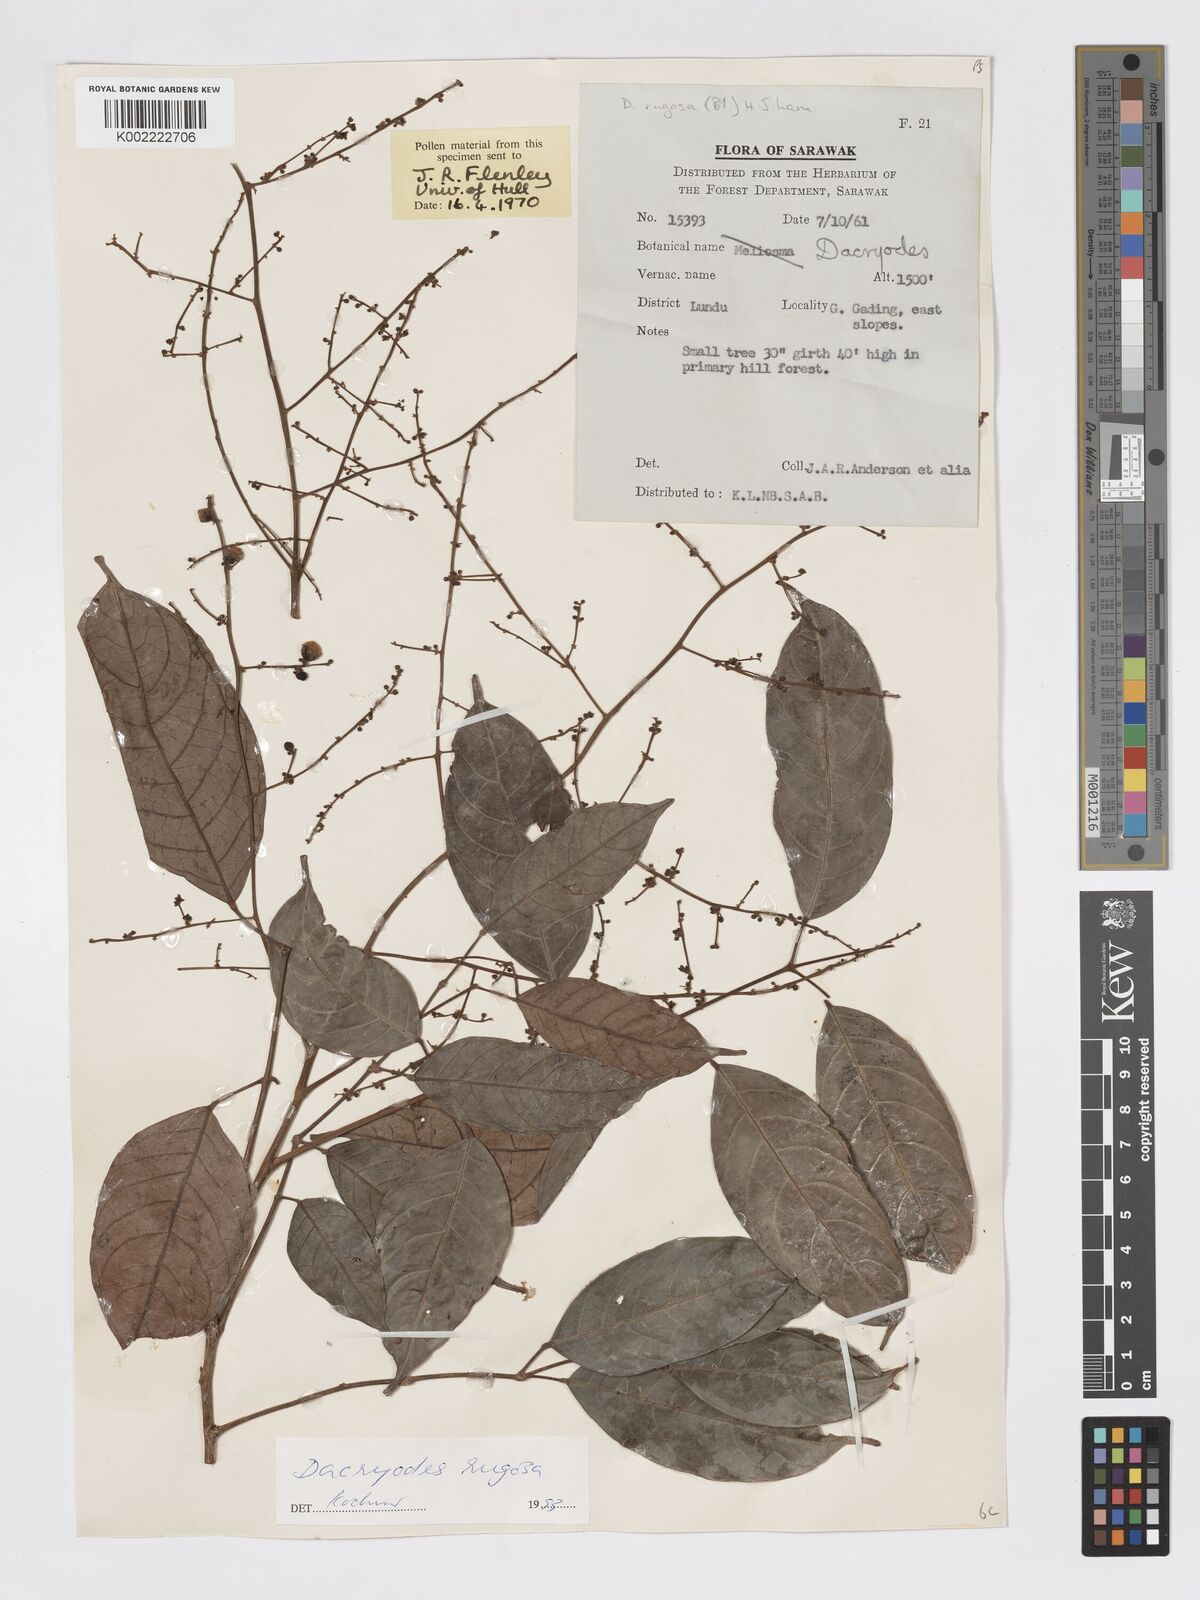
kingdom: Plantae
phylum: Tracheophyta
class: Magnoliopsida
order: Sapindales
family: Burseraceae
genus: Dacryodes
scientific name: Dacryodes rugosa
